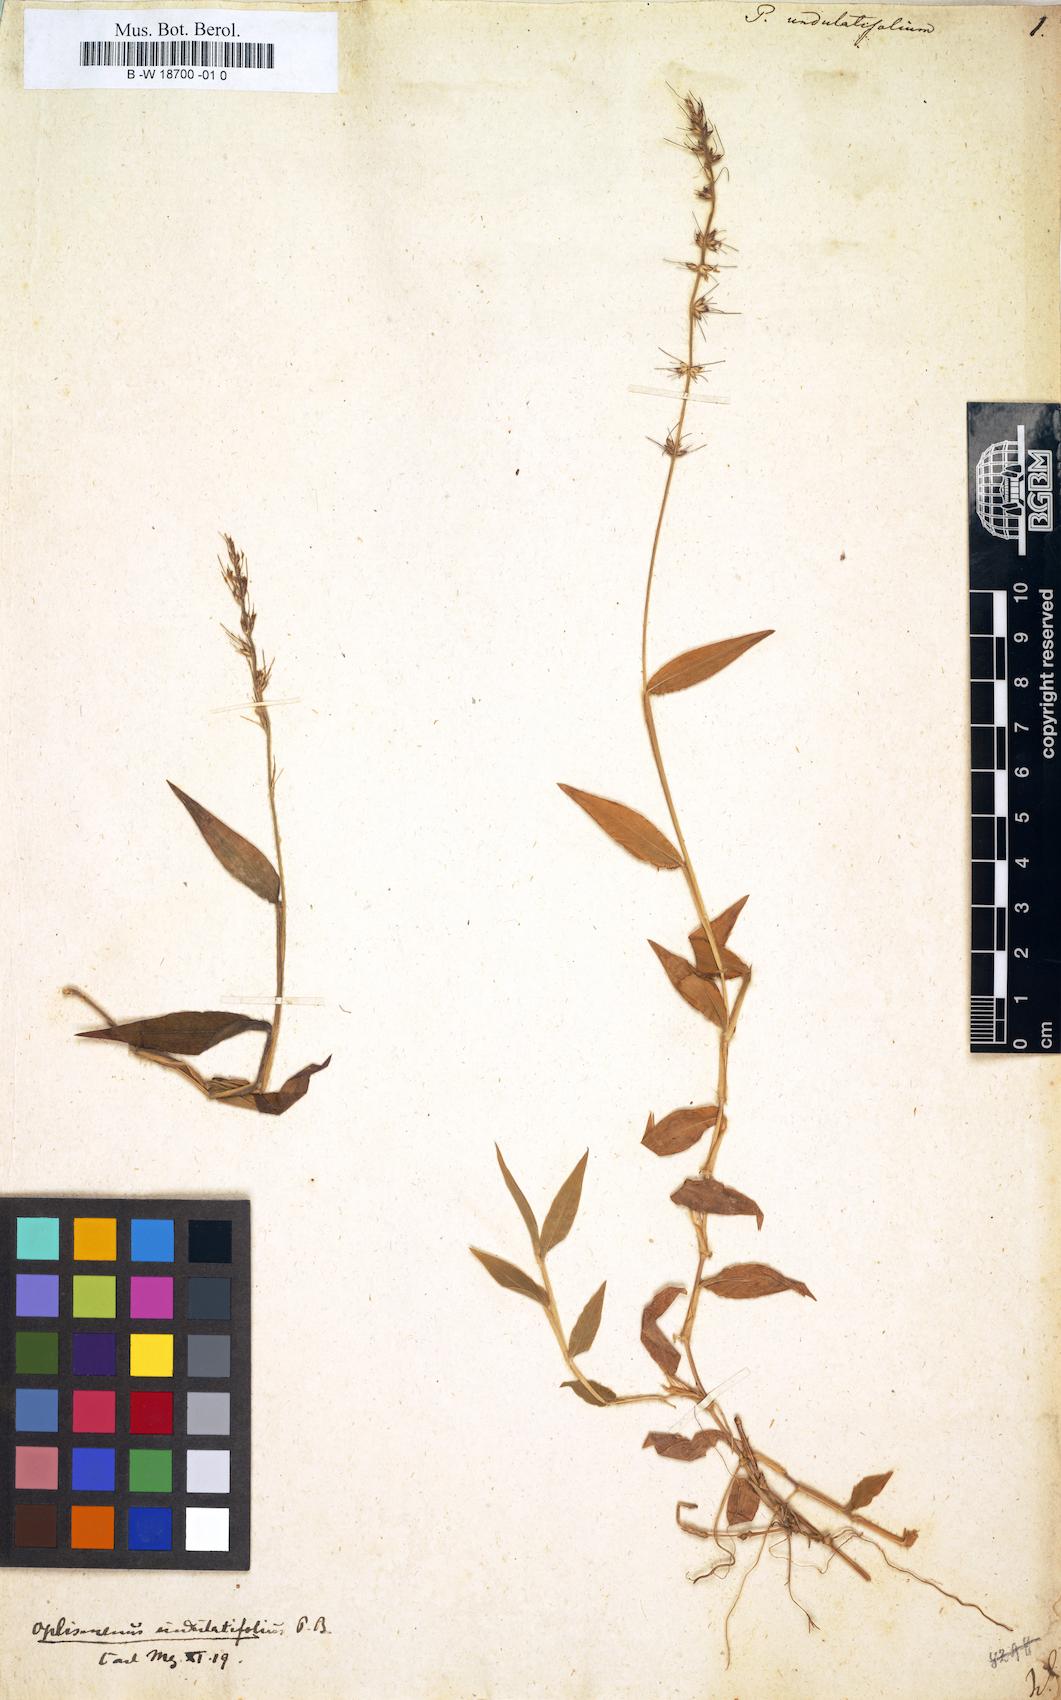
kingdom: Plantae
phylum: Tracheophyta
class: Liliopsida
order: Poales
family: Poaceae
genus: Oplismenus
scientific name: Oplismenus undulatifolius
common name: Wavyleaf basketgrass
